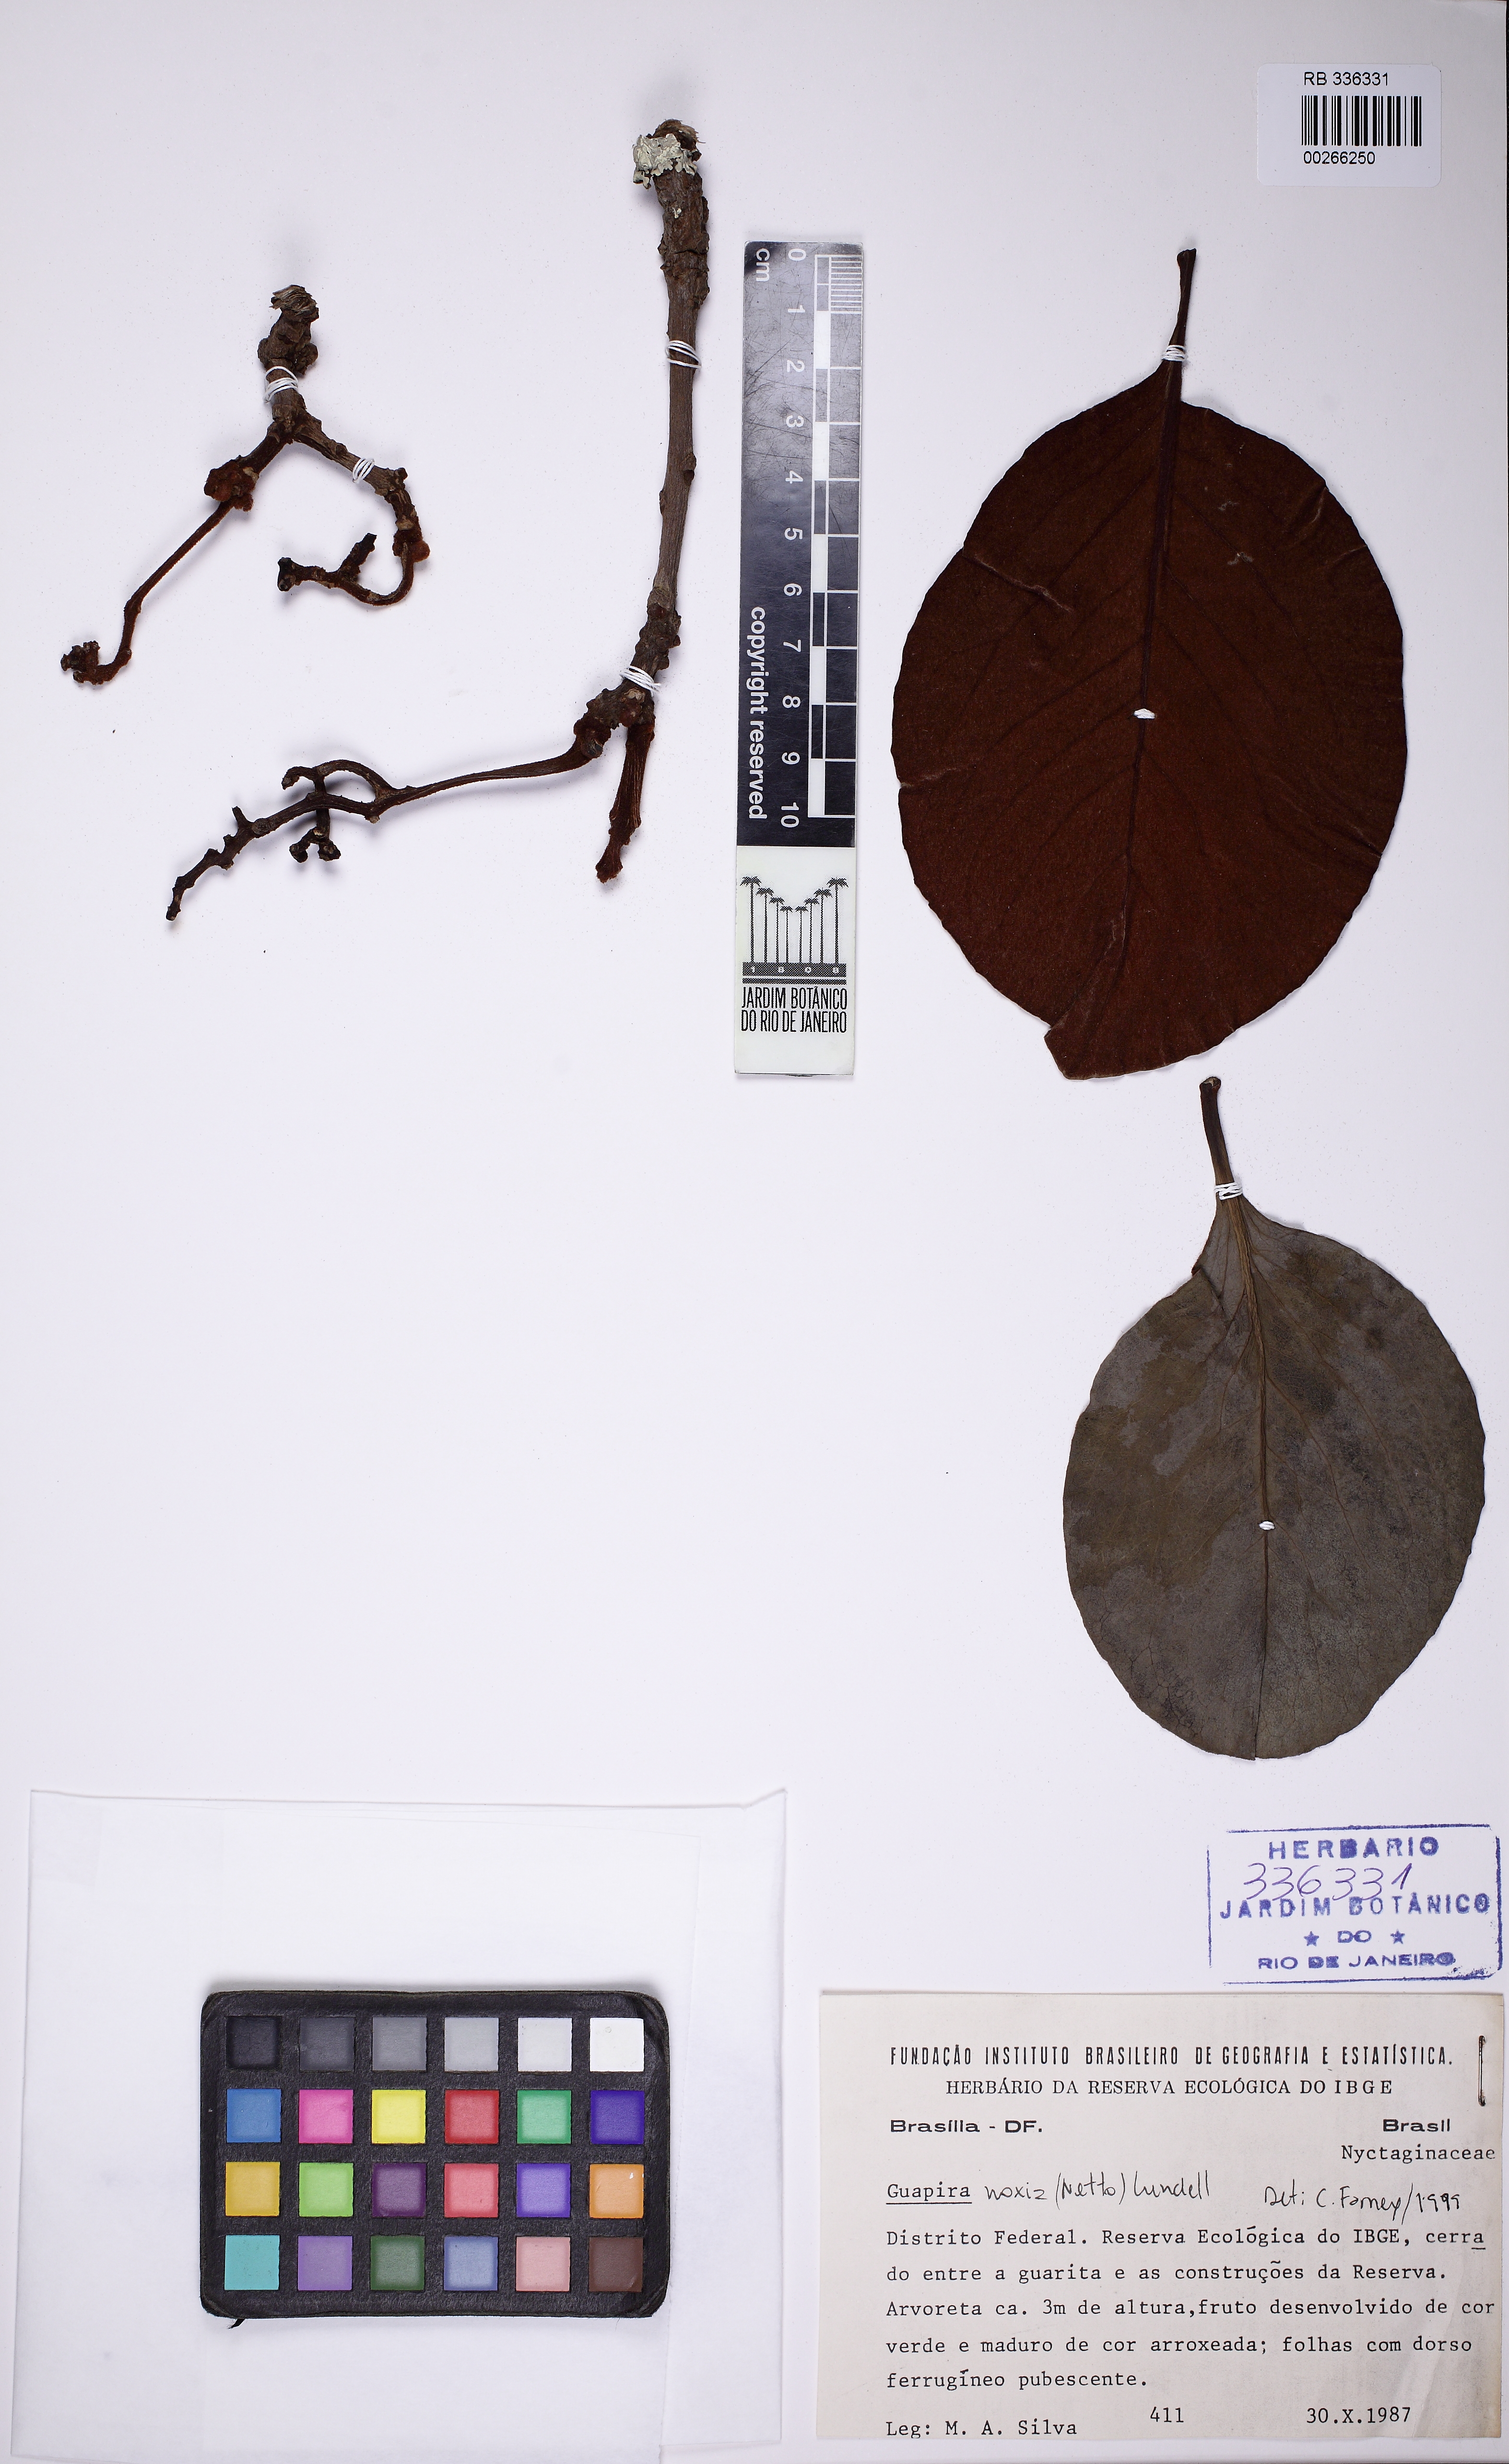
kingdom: Plantae
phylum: Tracheophyta
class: Magnoliopsida
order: Caryophyllales
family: Nyctaginaceae
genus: Guapira
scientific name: Guapira noxia
